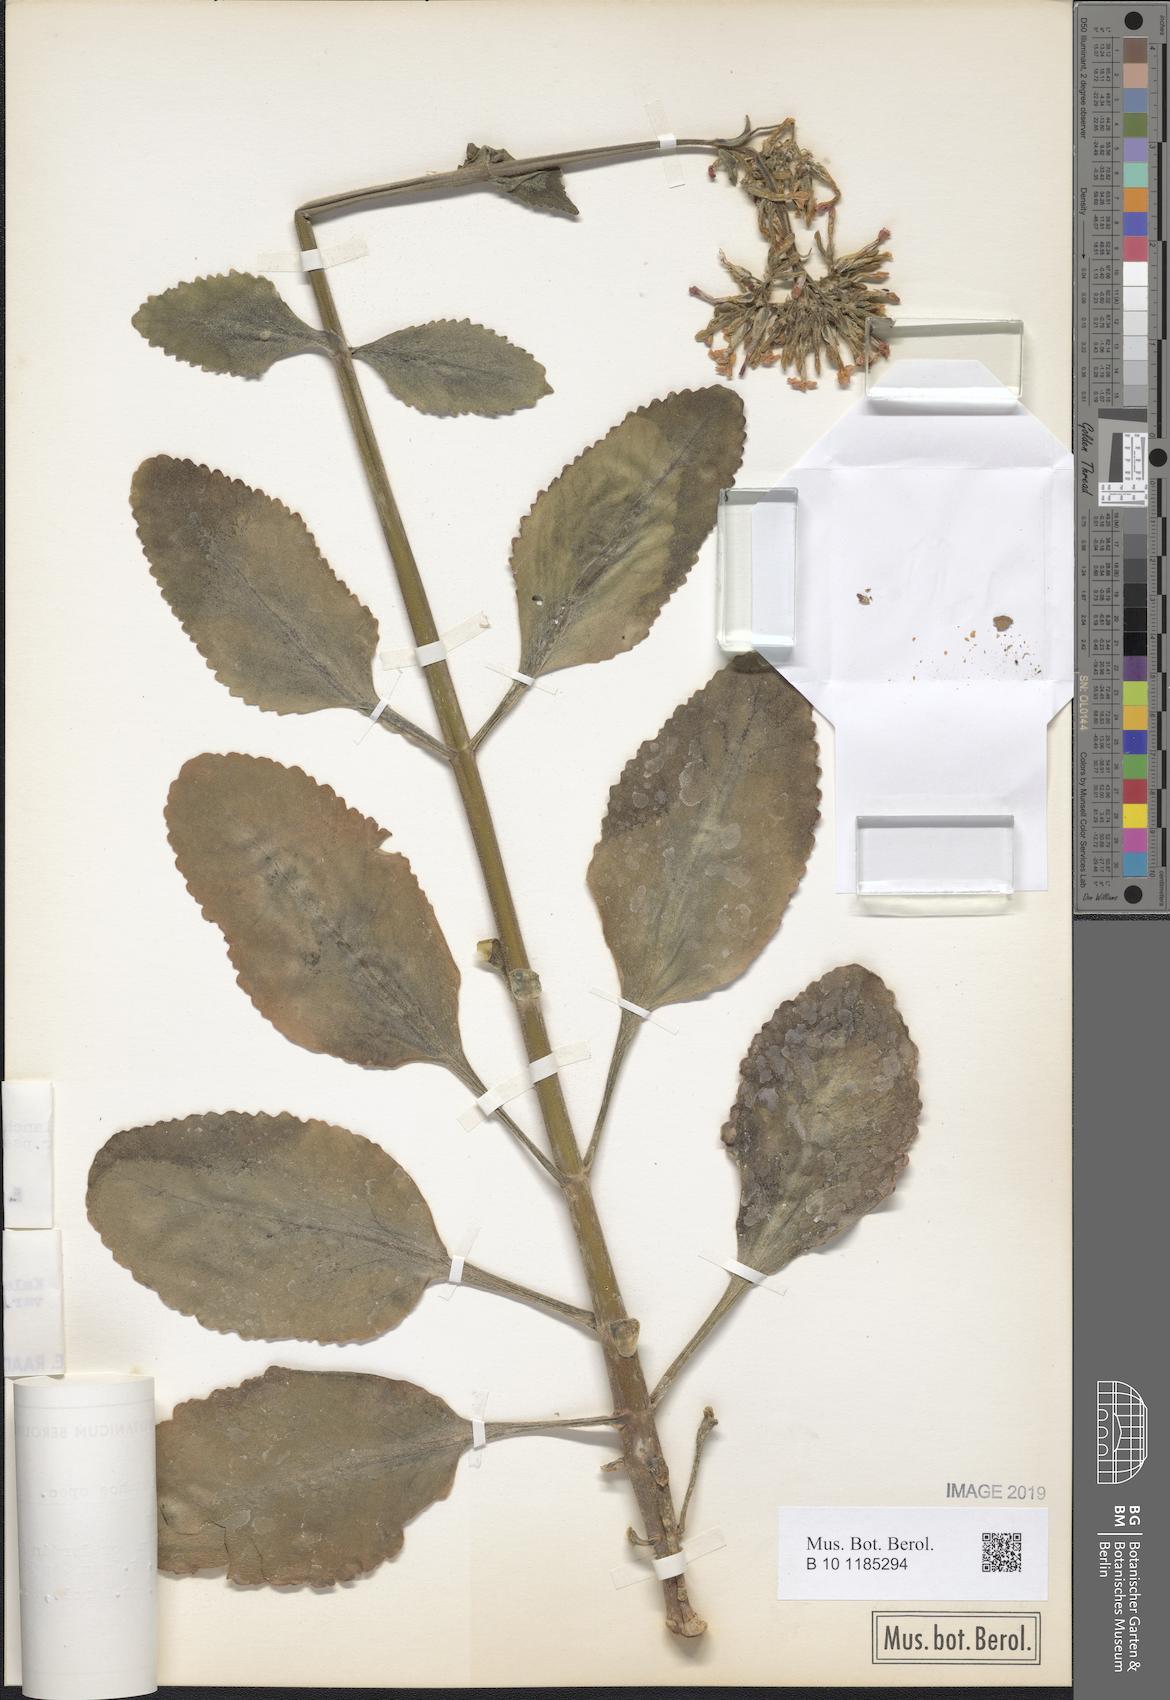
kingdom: Plantae
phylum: Tracheophyta
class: Magnoliopsida
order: Saxifragales
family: Crassulaceae
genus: Kalanchoe
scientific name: Kalanchoe lateritia
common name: Kalanchoe
